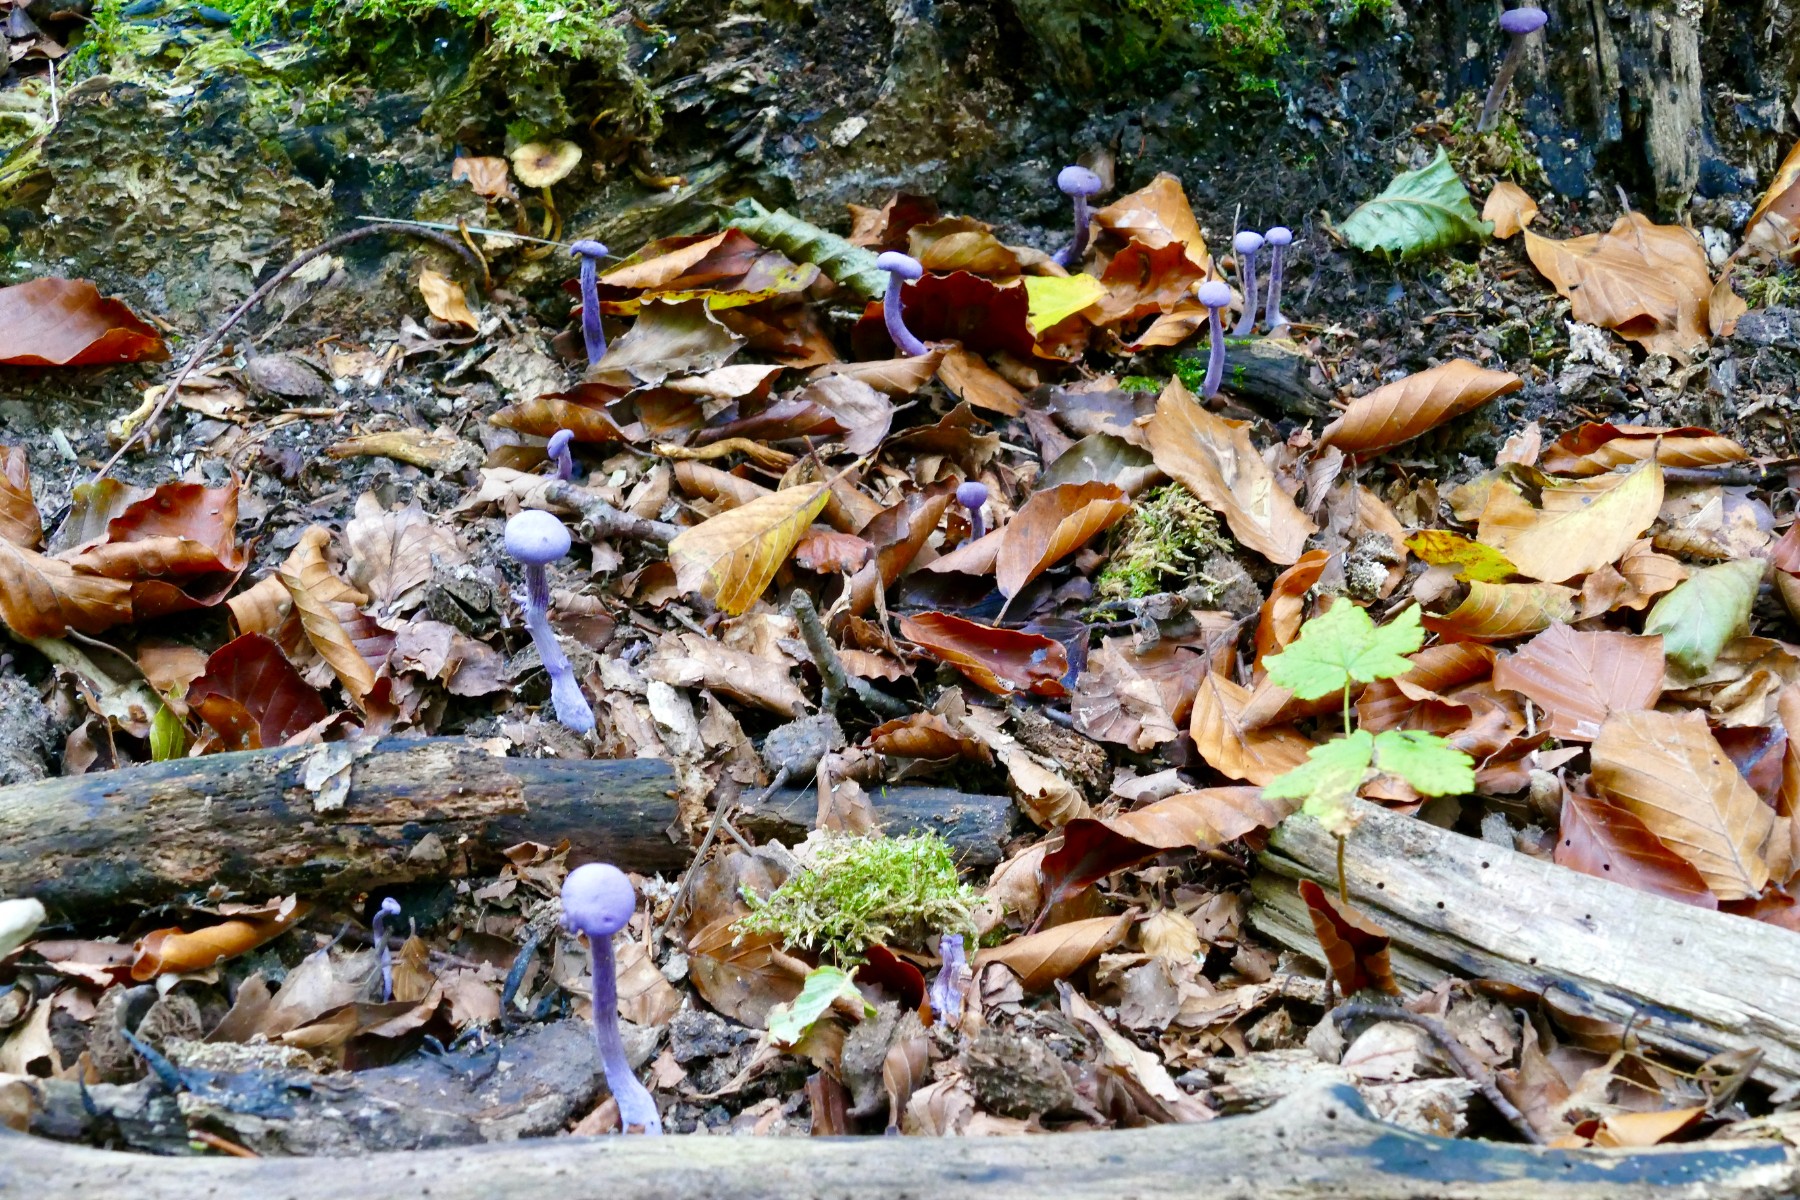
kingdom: Fungi
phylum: Basidiomycota
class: Agaricomycetes
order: Agaricales
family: Hydnangiaceae
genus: Laccaria
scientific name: Laccaria amethystina
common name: violet ametysthat
